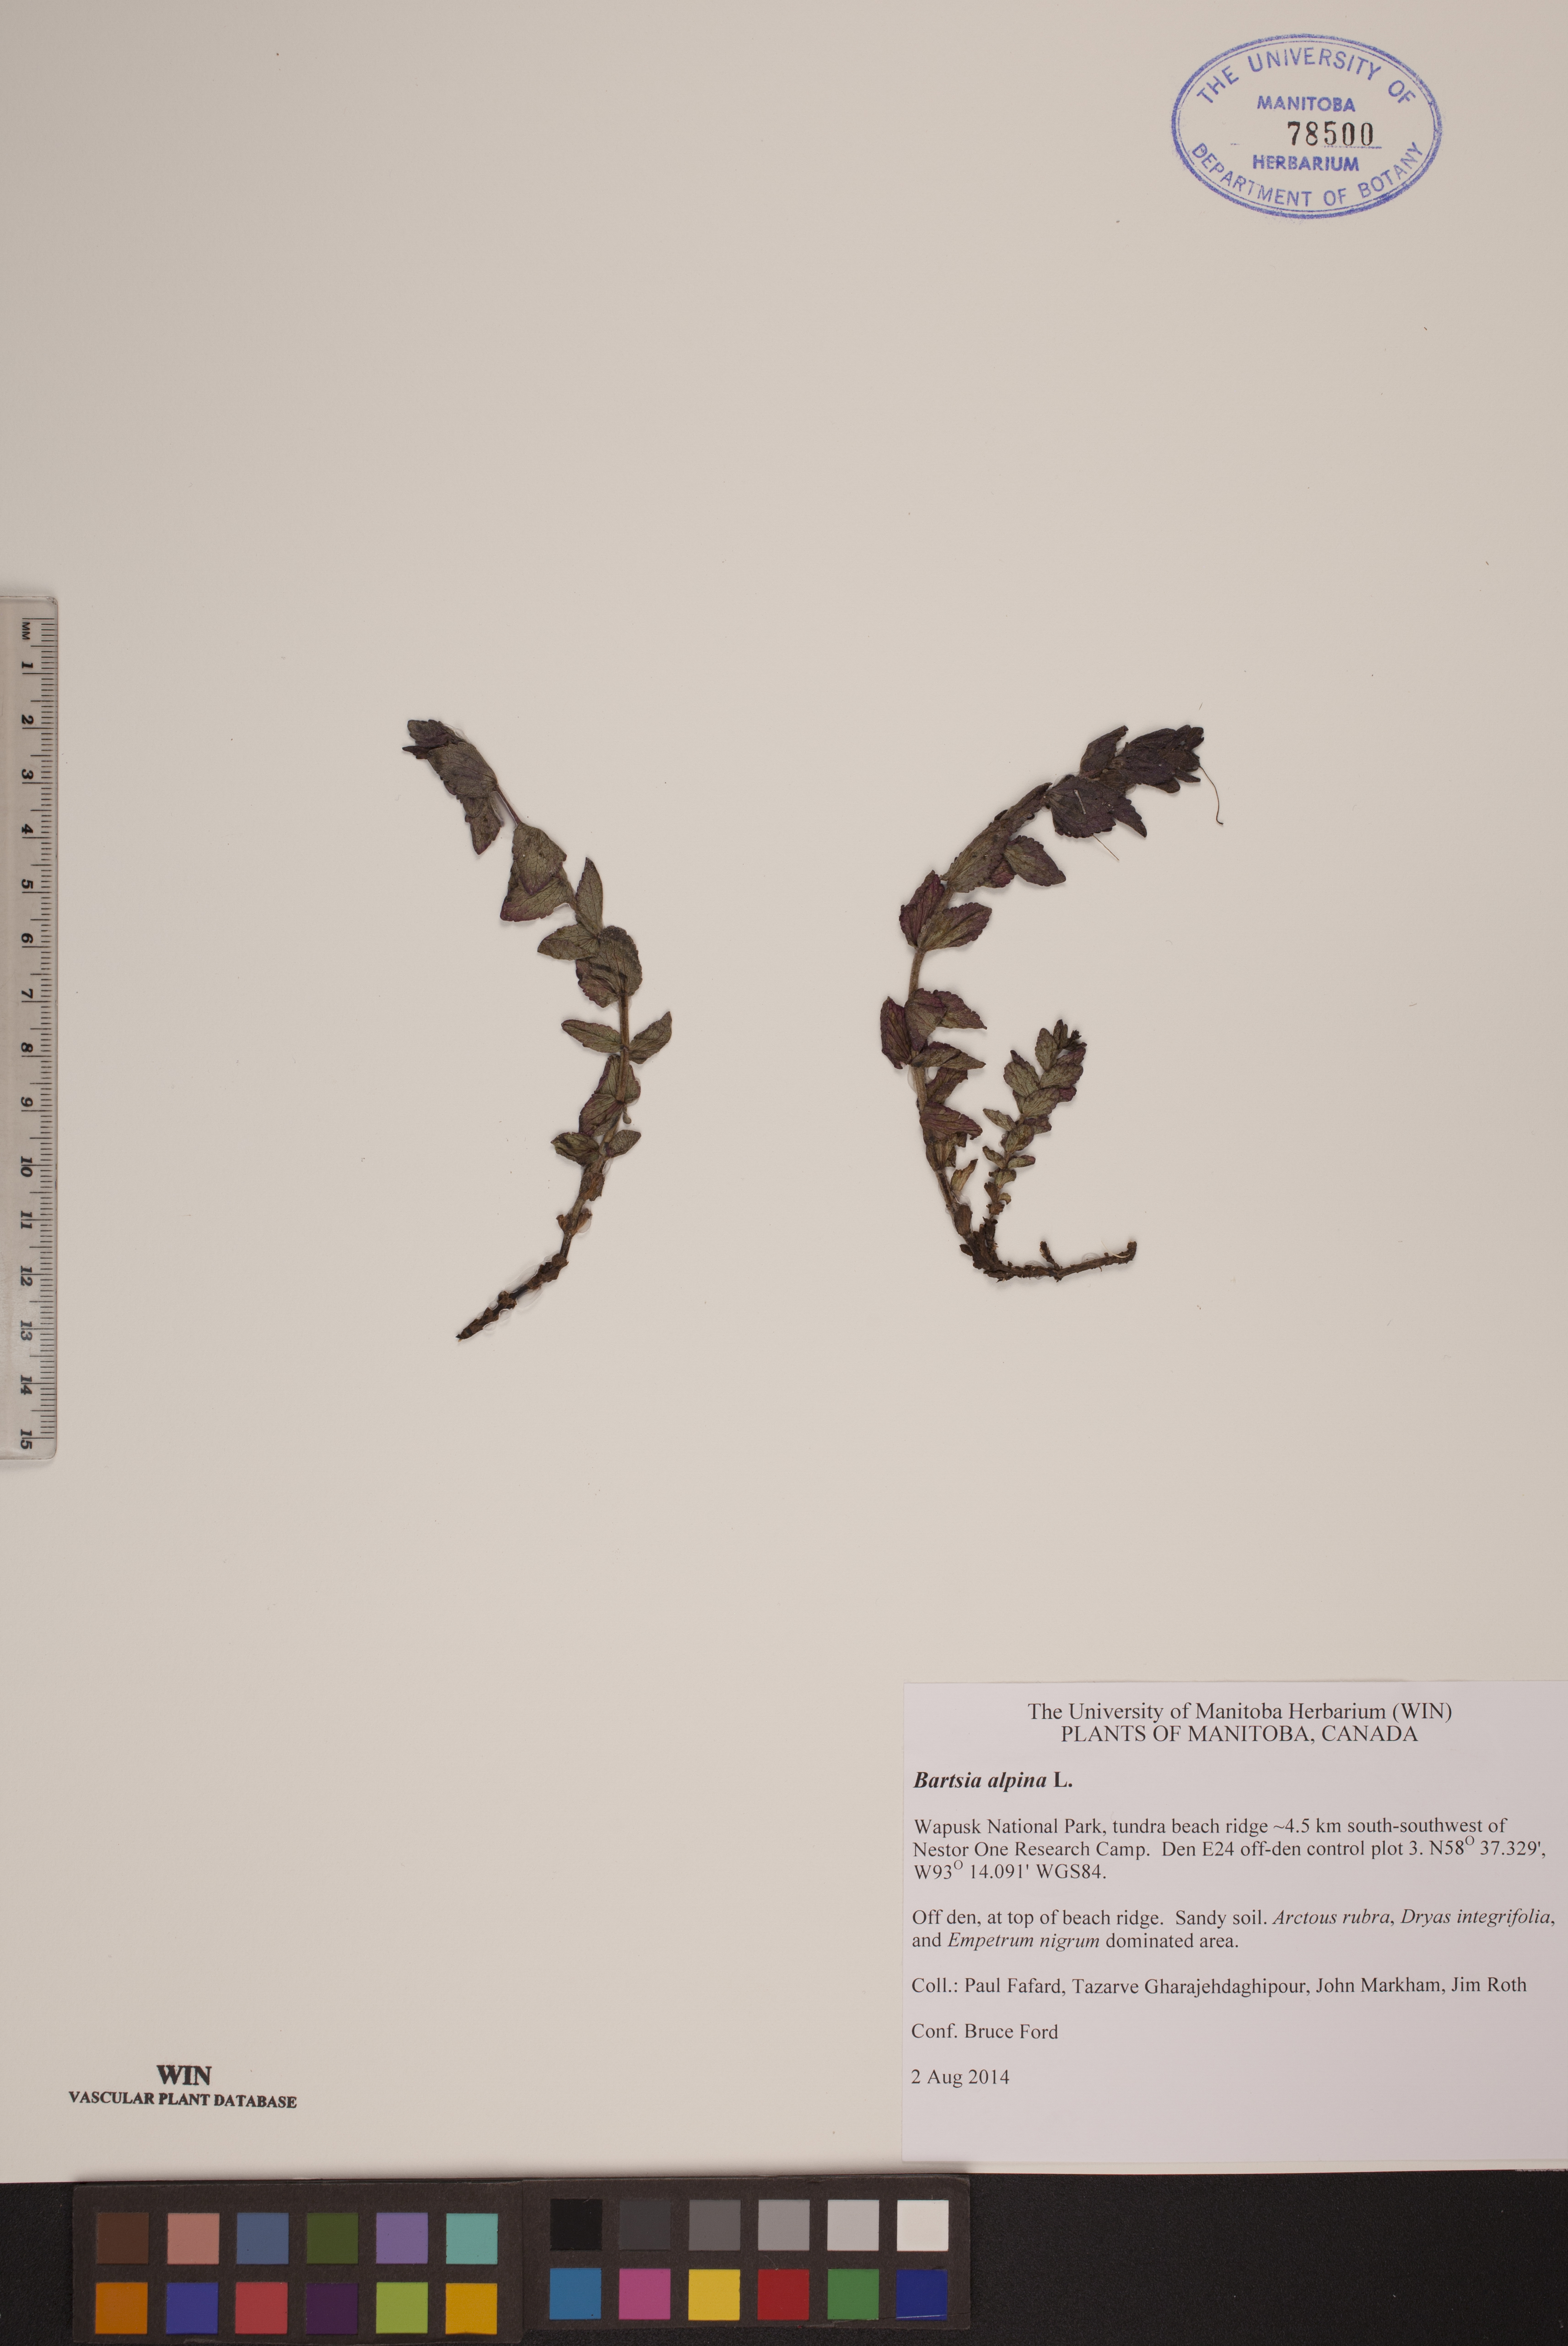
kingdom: Plantae
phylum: Tracheophyta
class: Magnoliopsida
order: Lamiales
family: Orobanchaceae
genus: Bartsia
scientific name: Bartsia alpina
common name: Alpine bartsia
